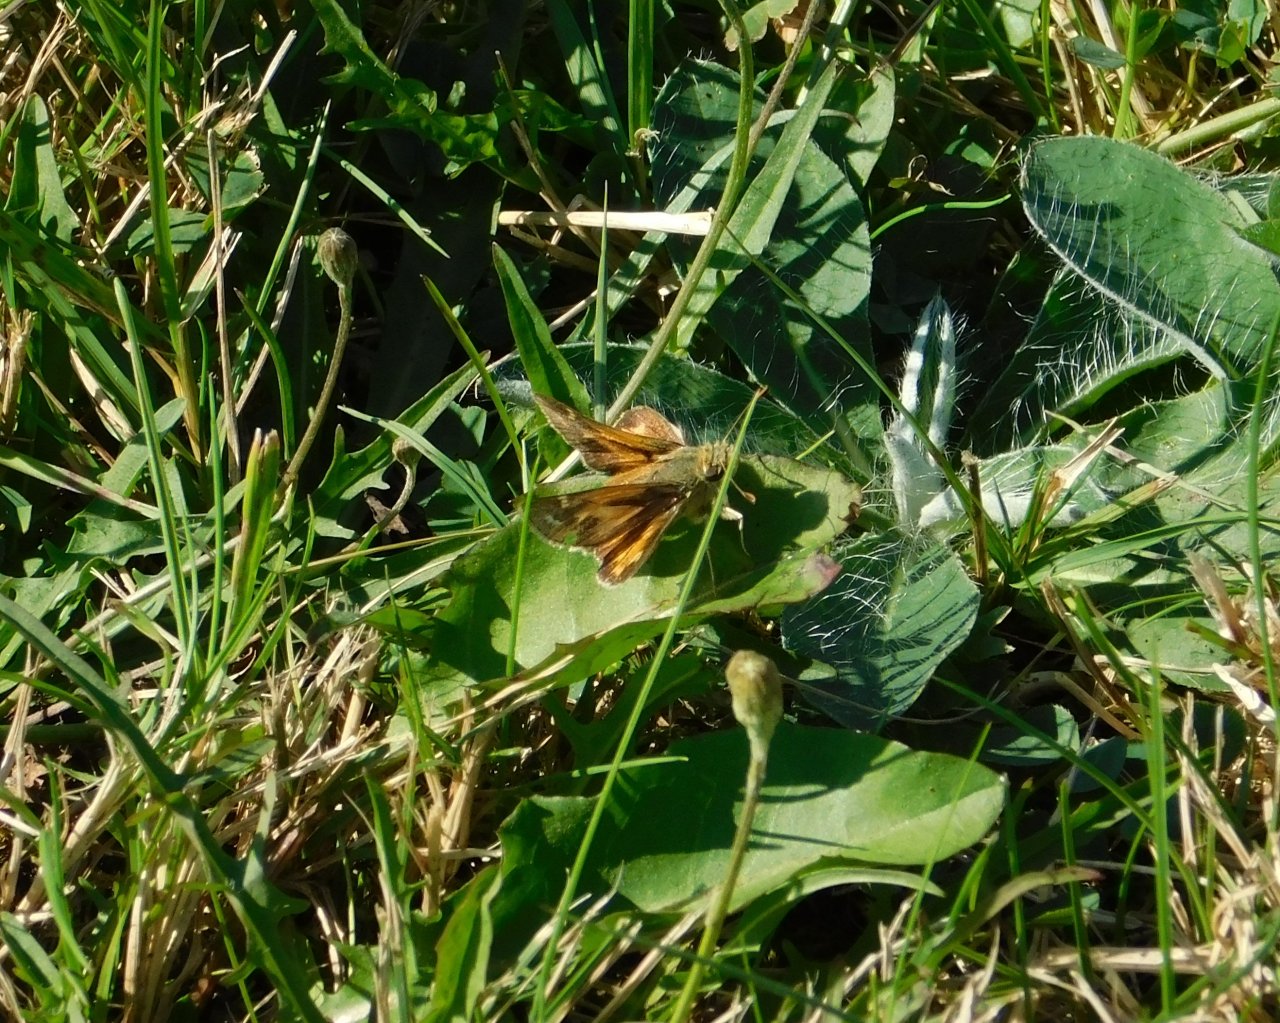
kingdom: Animalia
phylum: Arthropoda
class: Insecta
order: Lepidoptera
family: Hesperiidae
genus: Polites
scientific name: Polites coras
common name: Peck's Skipper
